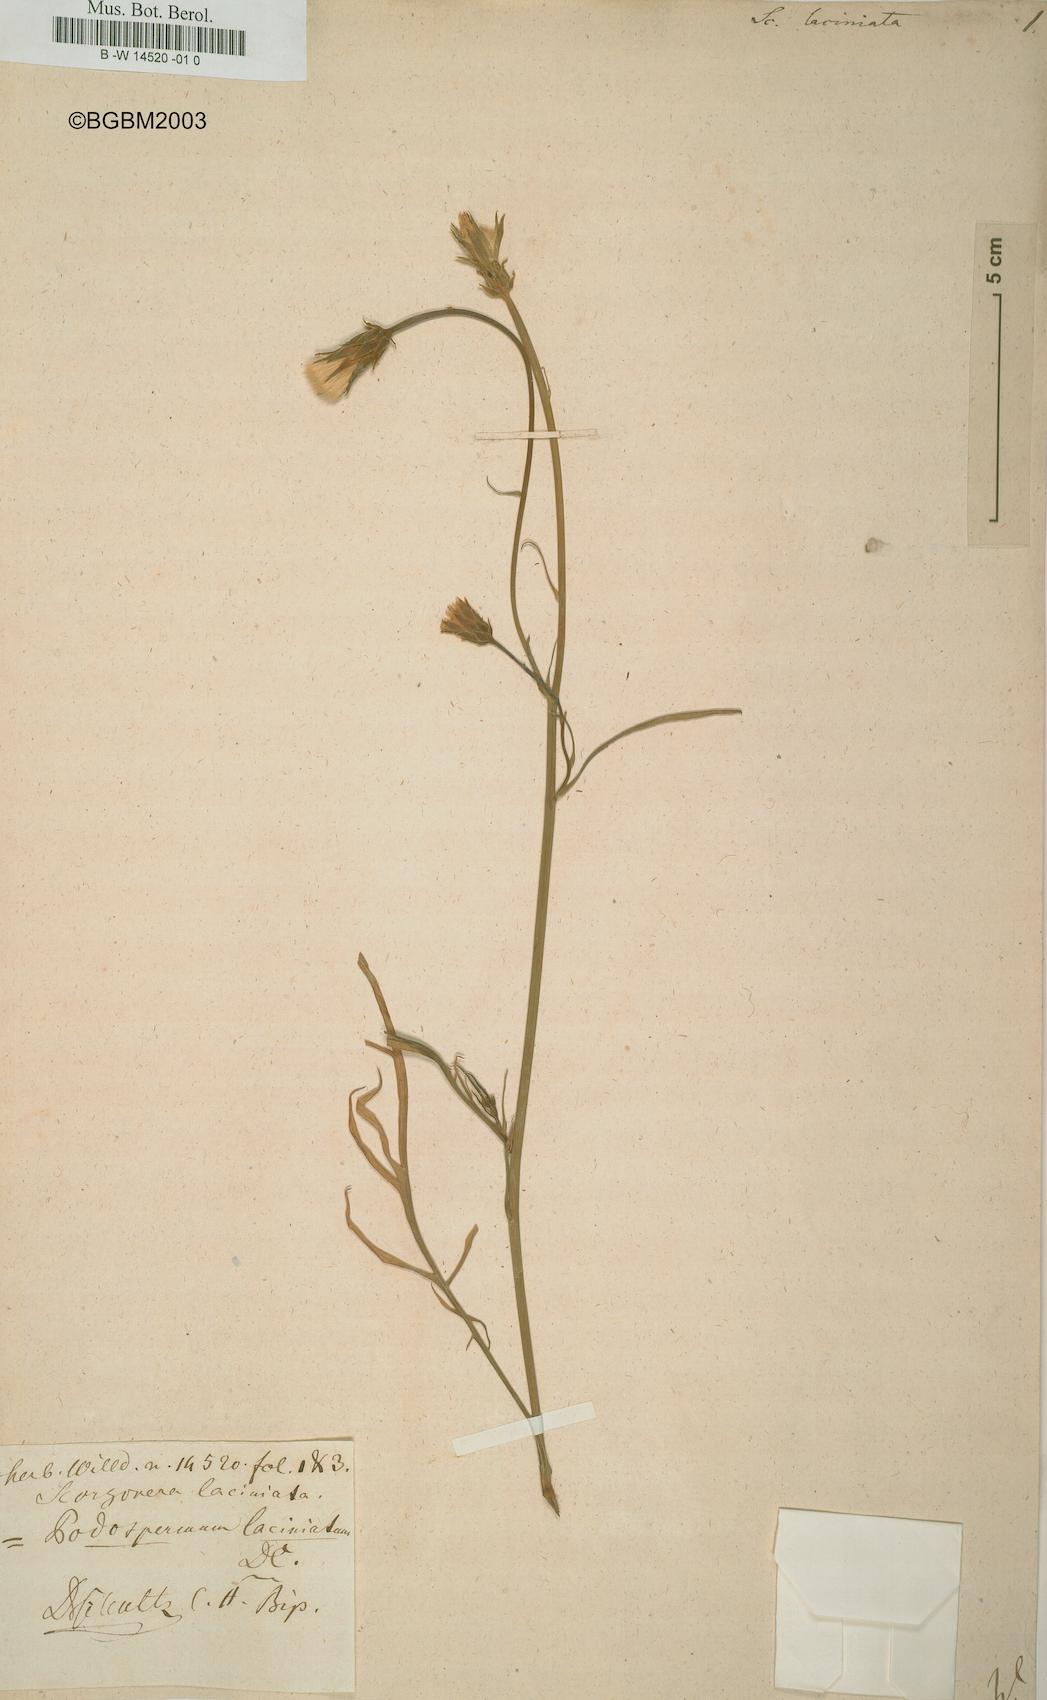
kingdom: Plantae
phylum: Tracheophyta
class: Magnoliopsida
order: Asterales
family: Asteraceae
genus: Scorzonera
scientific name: Scorzonera laciniata
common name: Cutleaf vipergrass
